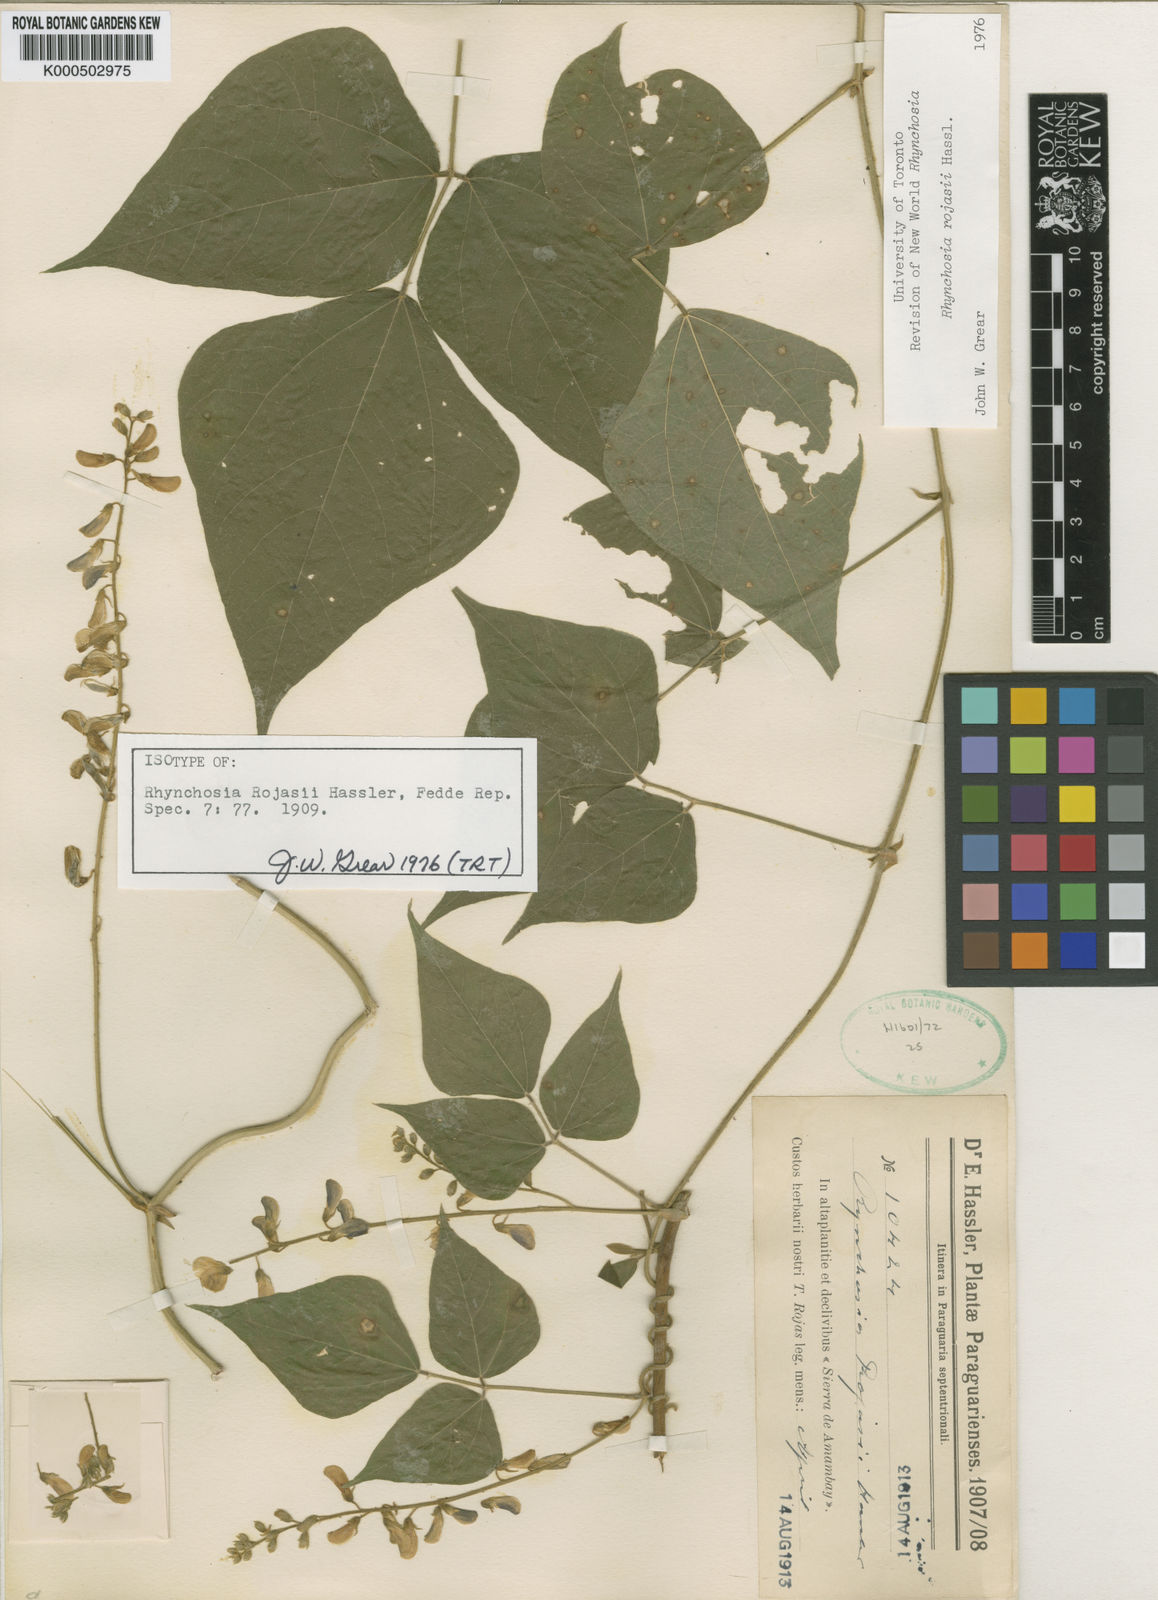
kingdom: Plantae
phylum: Tracheophyta
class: Magnoliopsida
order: Fabales
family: Fabaceae
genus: Rhynchosia
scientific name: Rhynchosia rojasii
